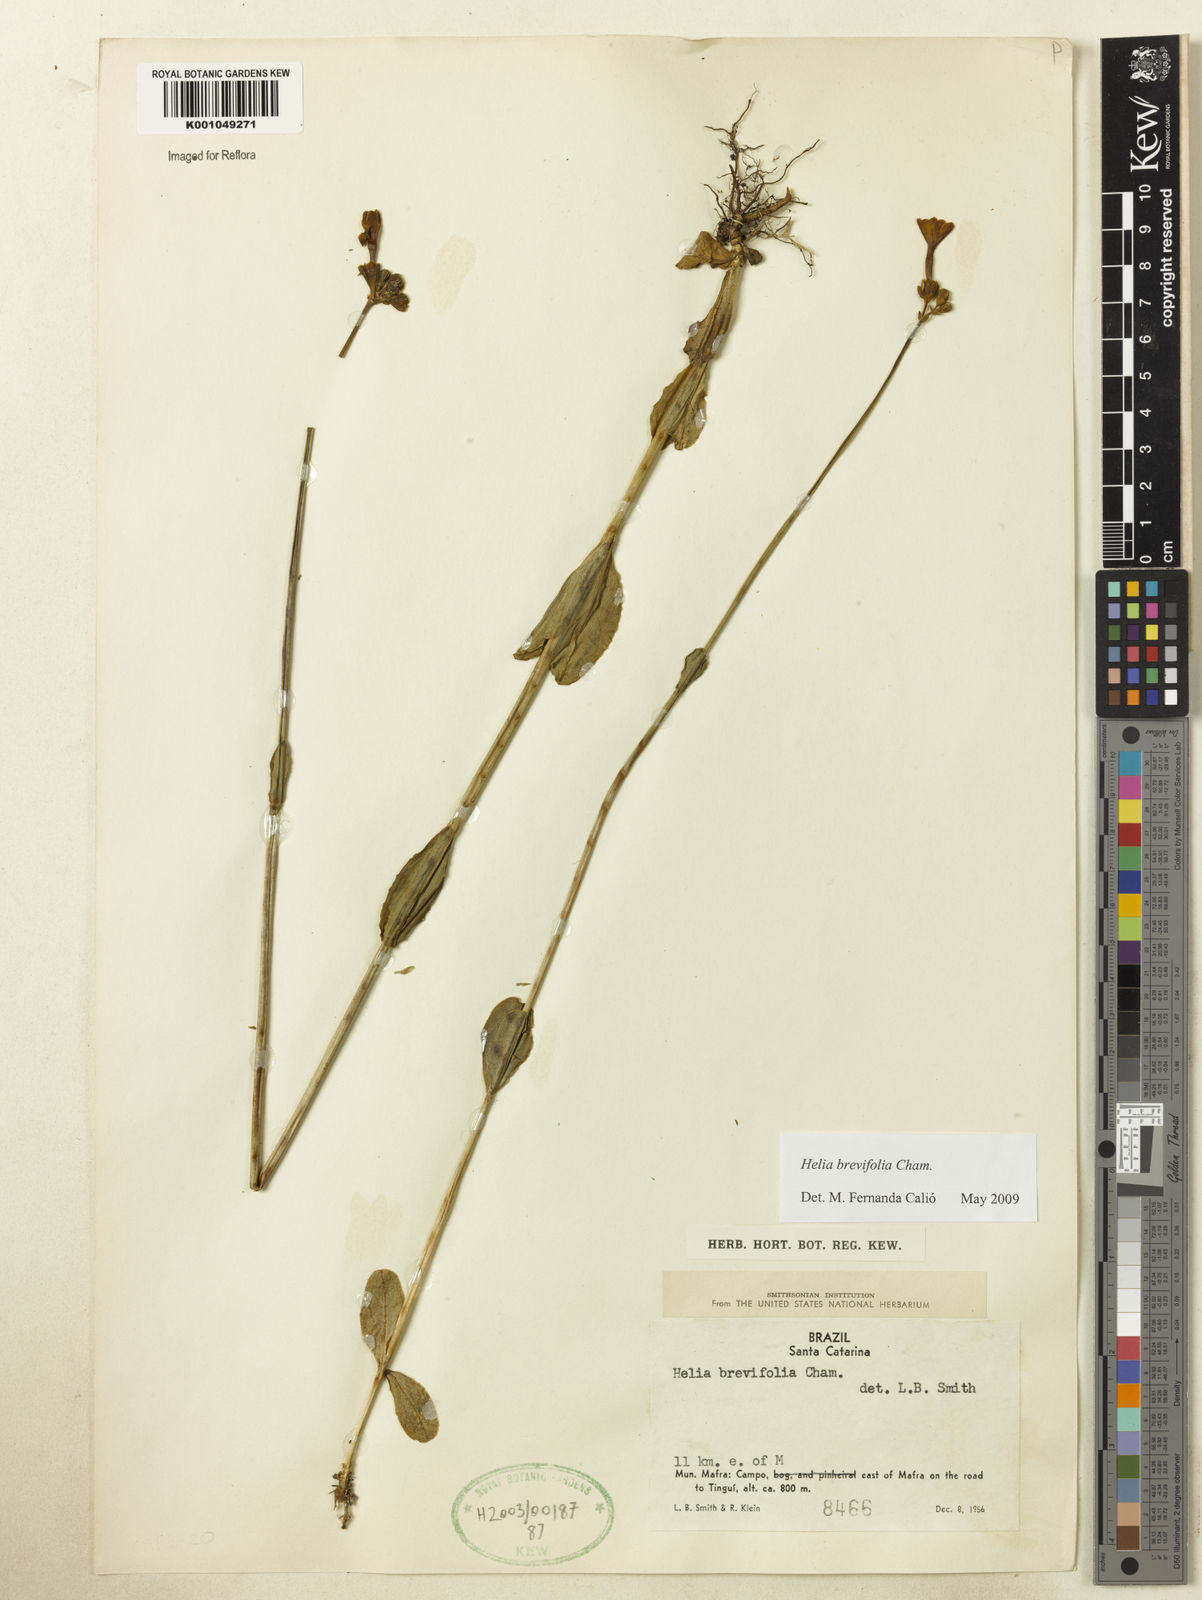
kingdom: Plantae
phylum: Tracheophyta
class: Magnoliopsida
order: Gentianales
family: Gentianaceae
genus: Irlbachia
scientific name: Irlbachia breviflora
